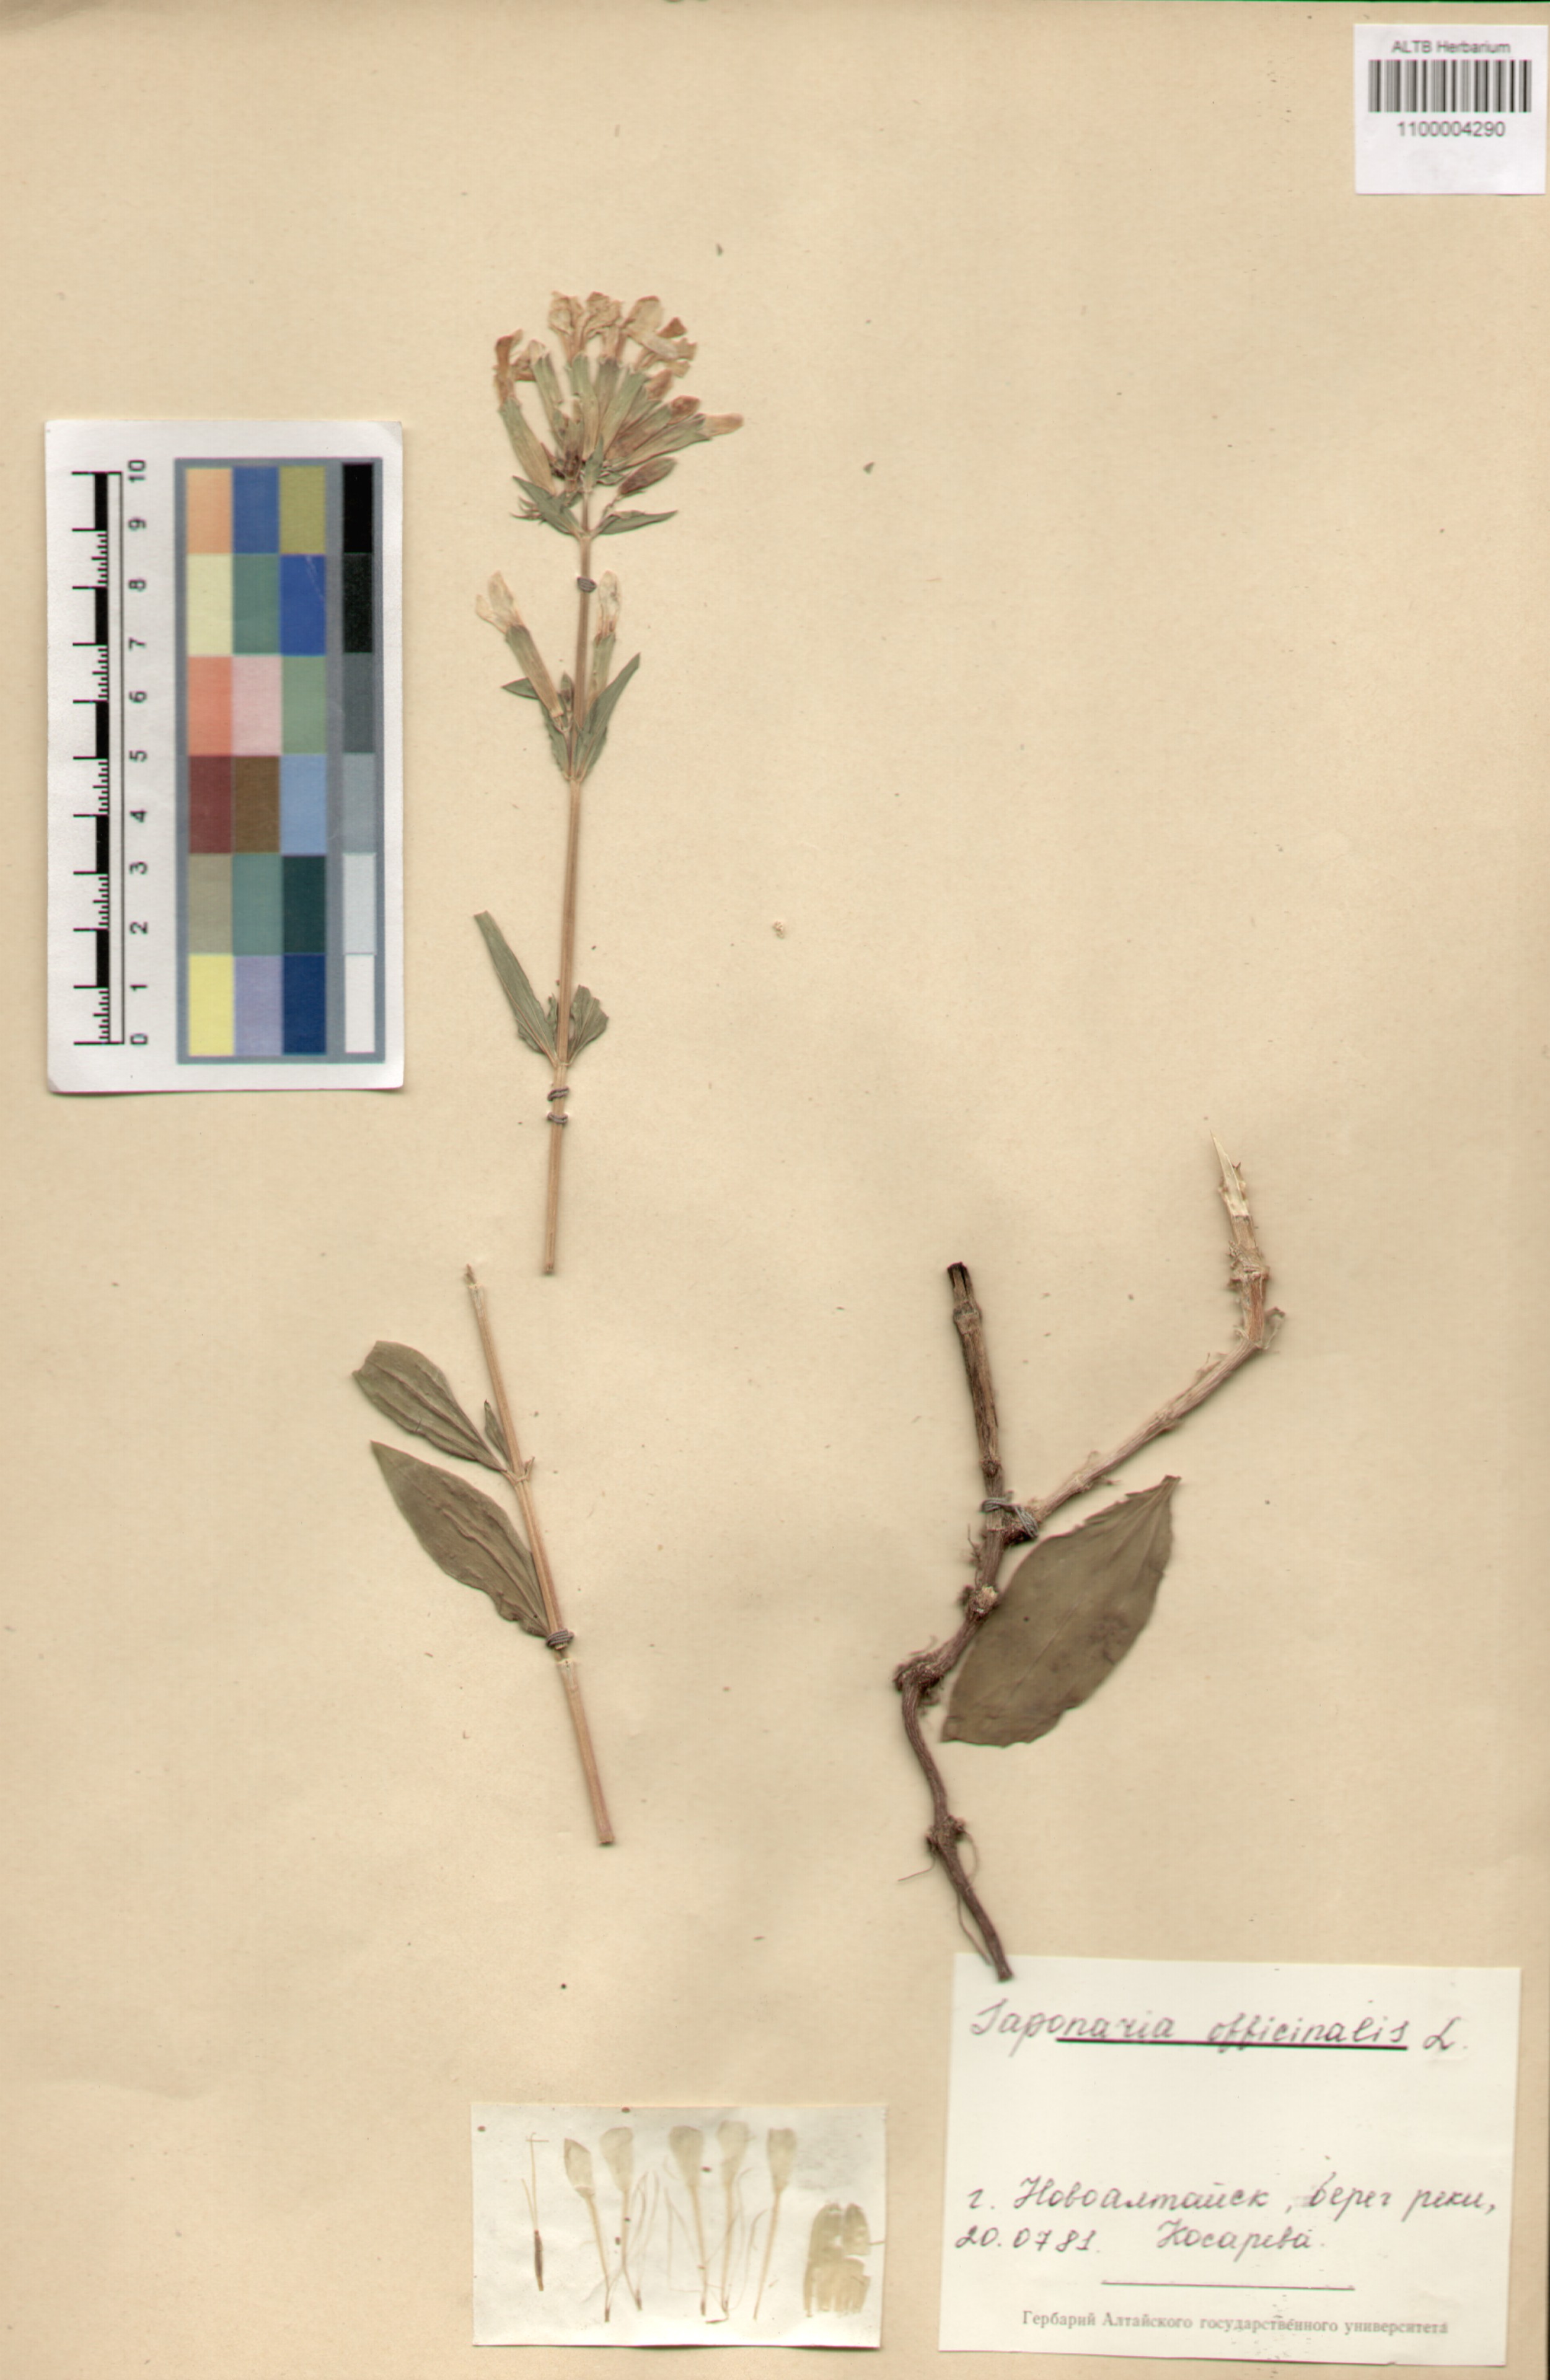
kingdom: Plantae
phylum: Tracheophyta
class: Magnoliopsida
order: Caryophyllales
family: Caryophyllaceae
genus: Saponaria
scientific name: Saponaria officinalis
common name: Soapwort
